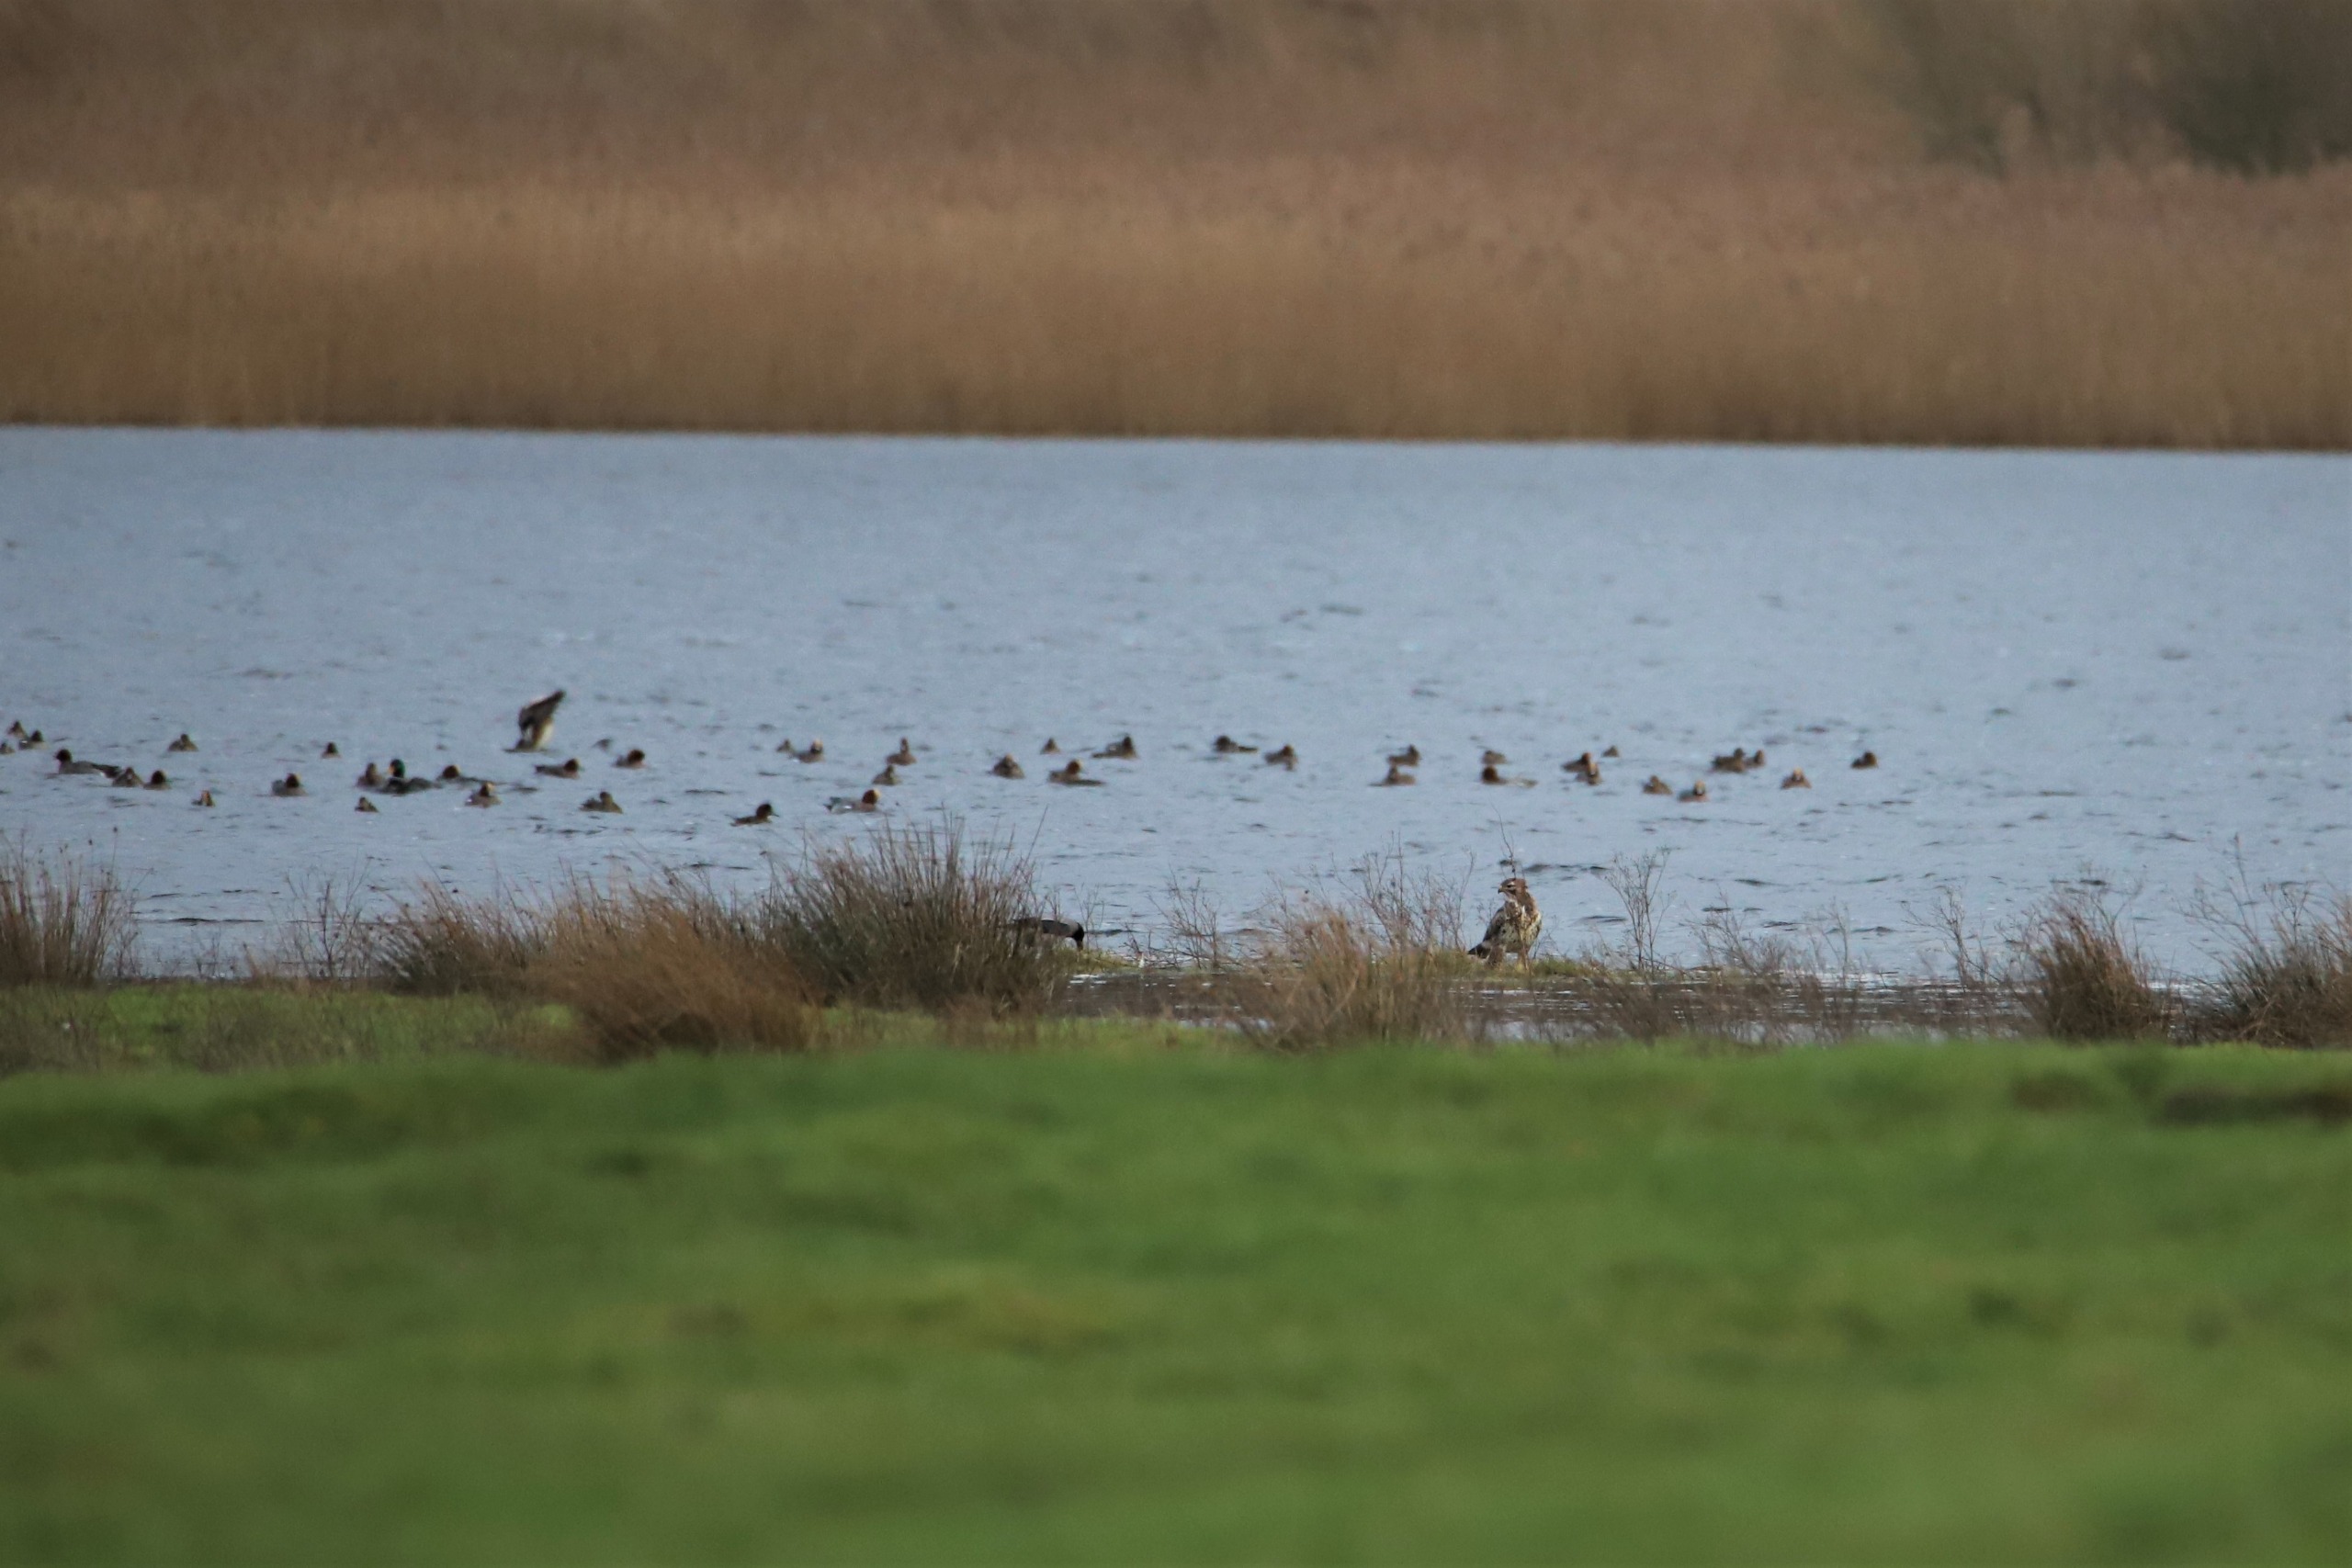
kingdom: Animalia
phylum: Chordata
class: Aves
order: Accipitriformes
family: Accipitridae
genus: Buteo
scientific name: Buteo buteo
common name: Musvåge
